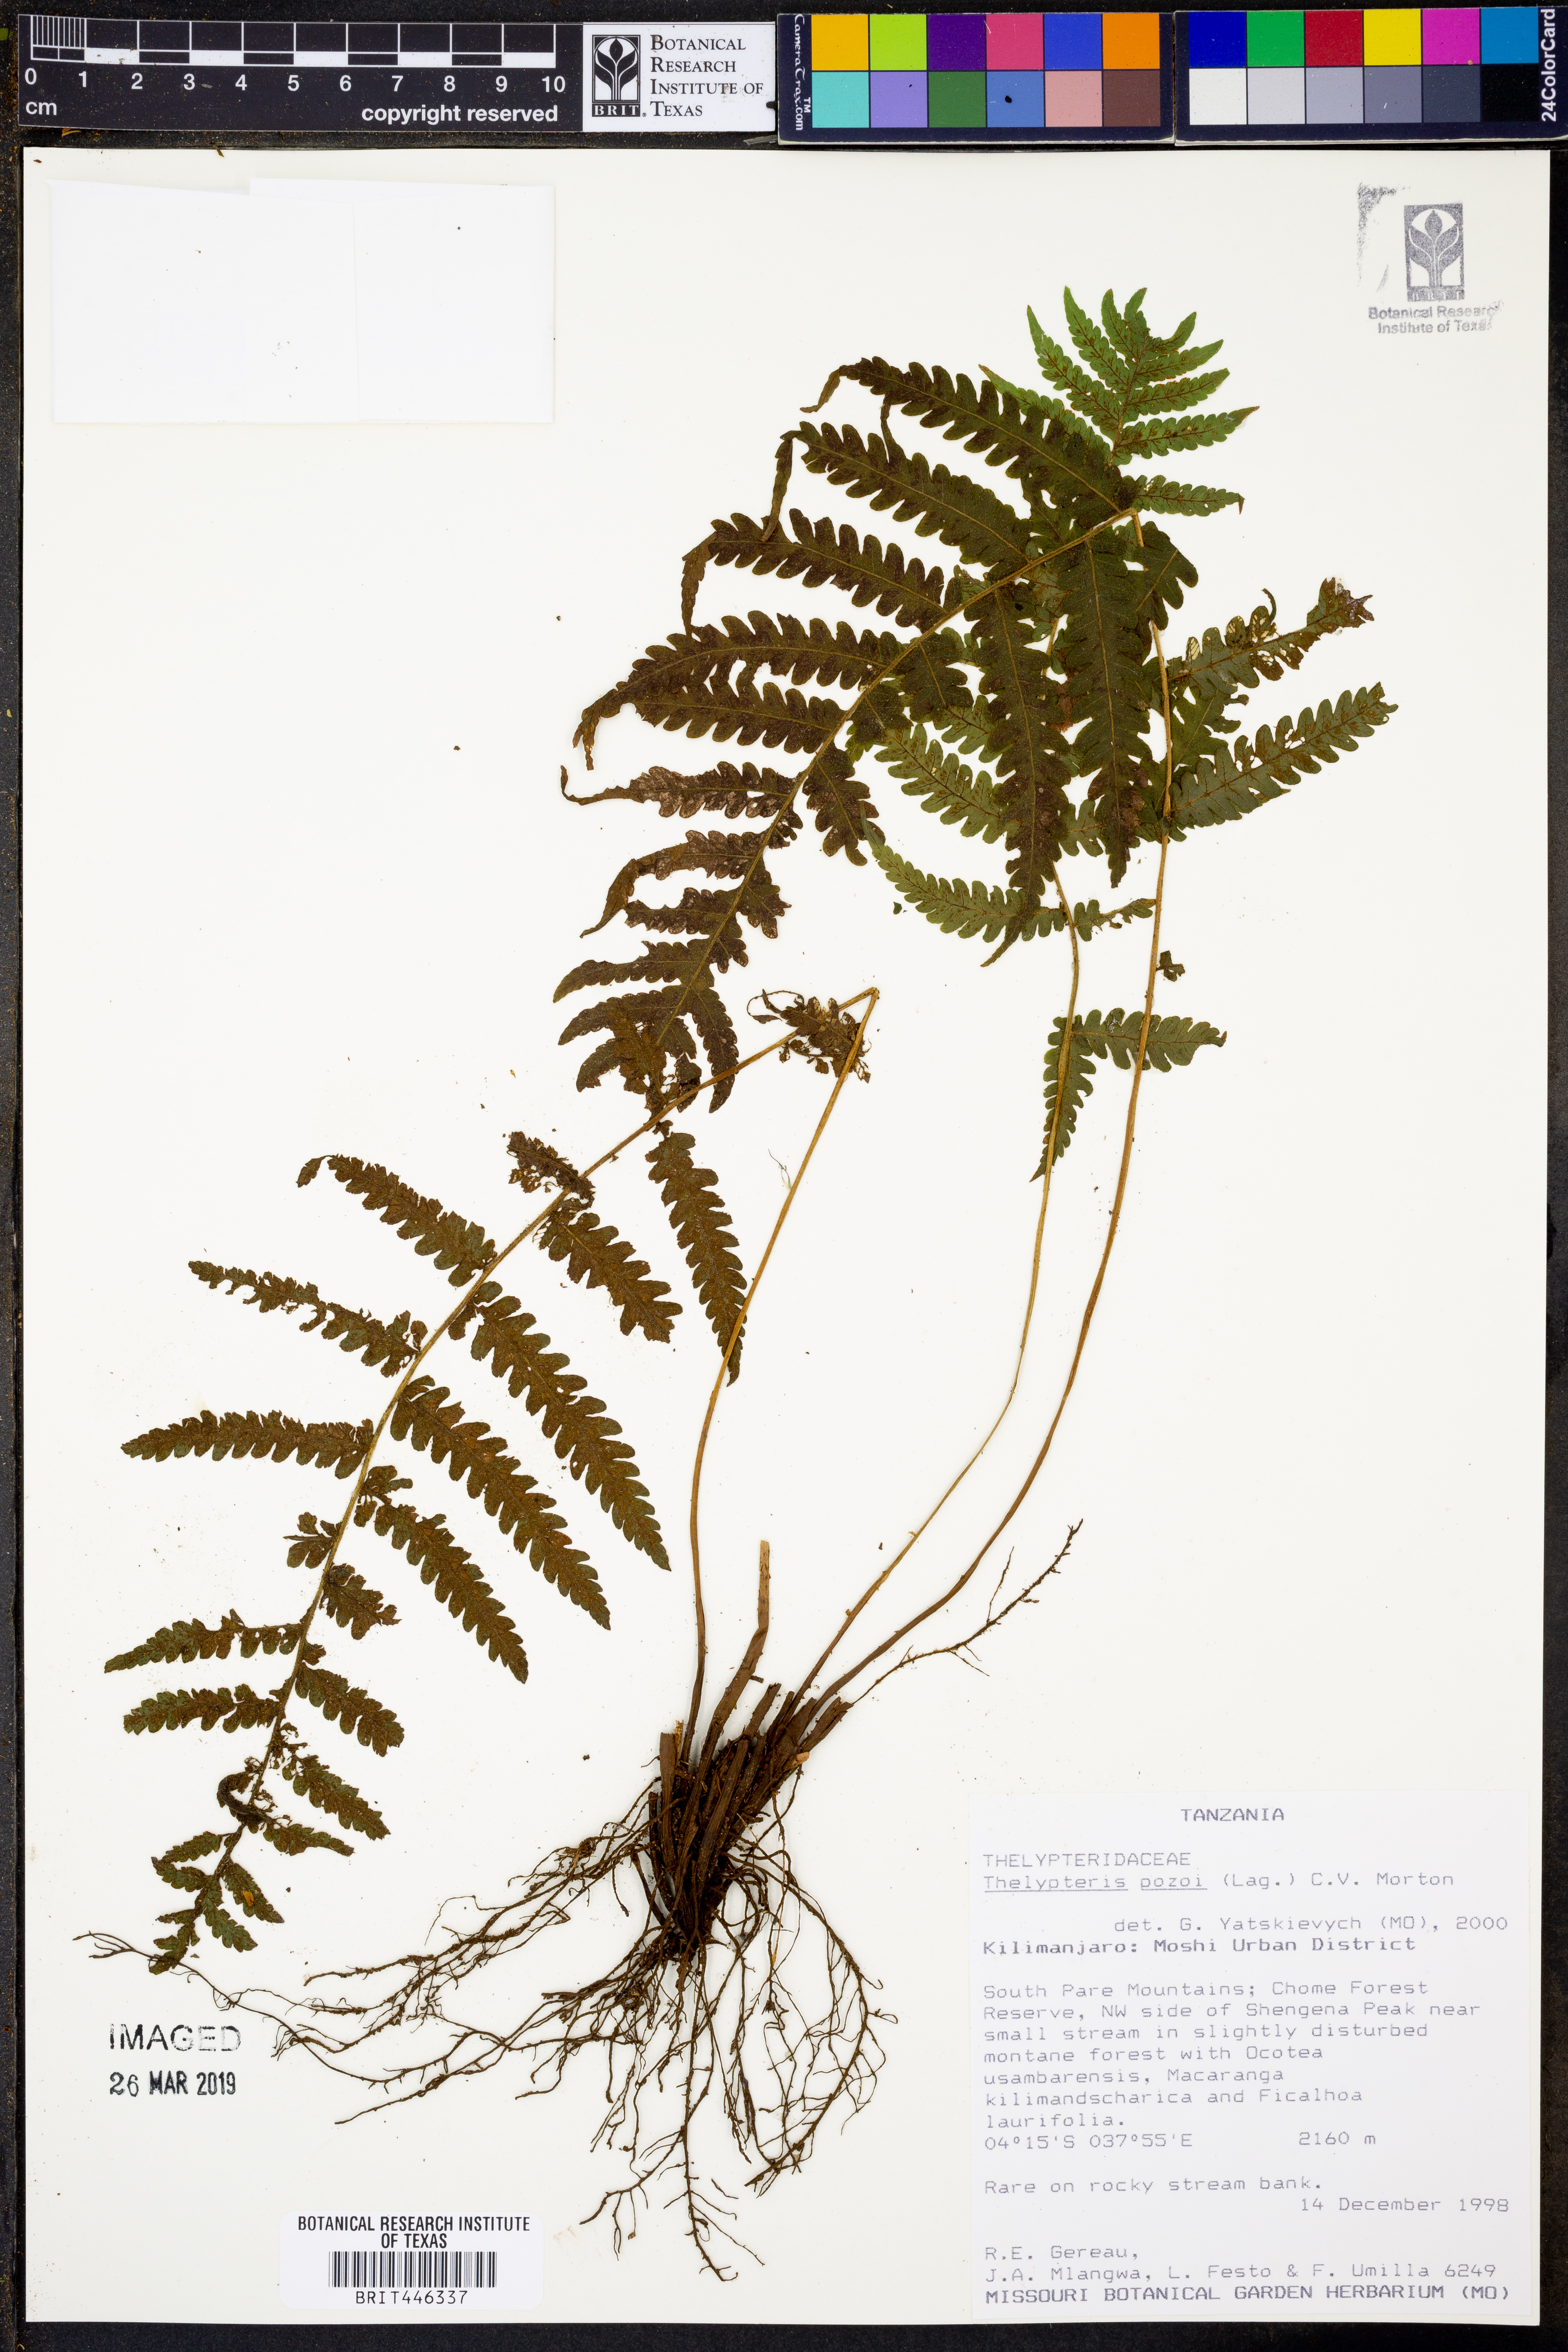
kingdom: Plantae
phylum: Tracheophyta
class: Polypodiopsida
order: Polypodiales
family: Thelypteridaceae
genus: Leptogramma
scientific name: Leptogramma pozoi
